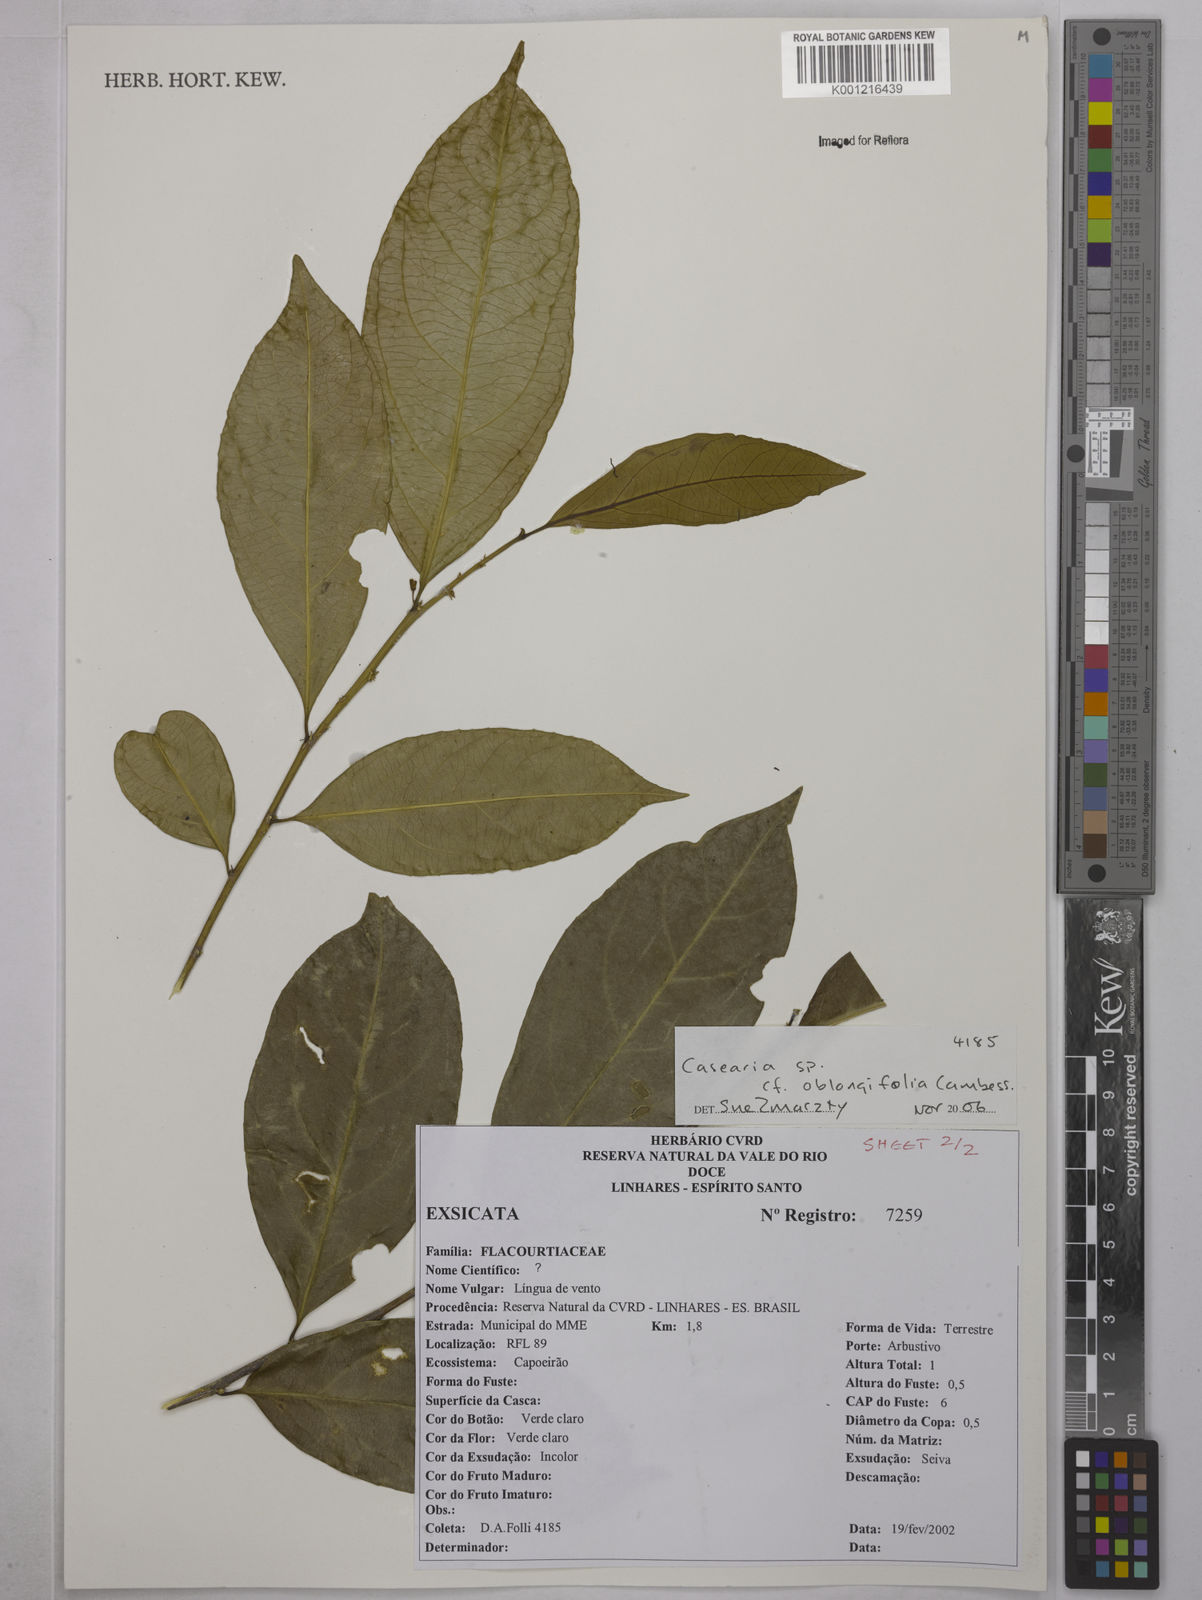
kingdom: Plantae
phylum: Tracheophyta
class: Magnoliopsida
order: Malpighiales
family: Salicaceae
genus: Casearia
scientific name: Casearia oblongifolia
